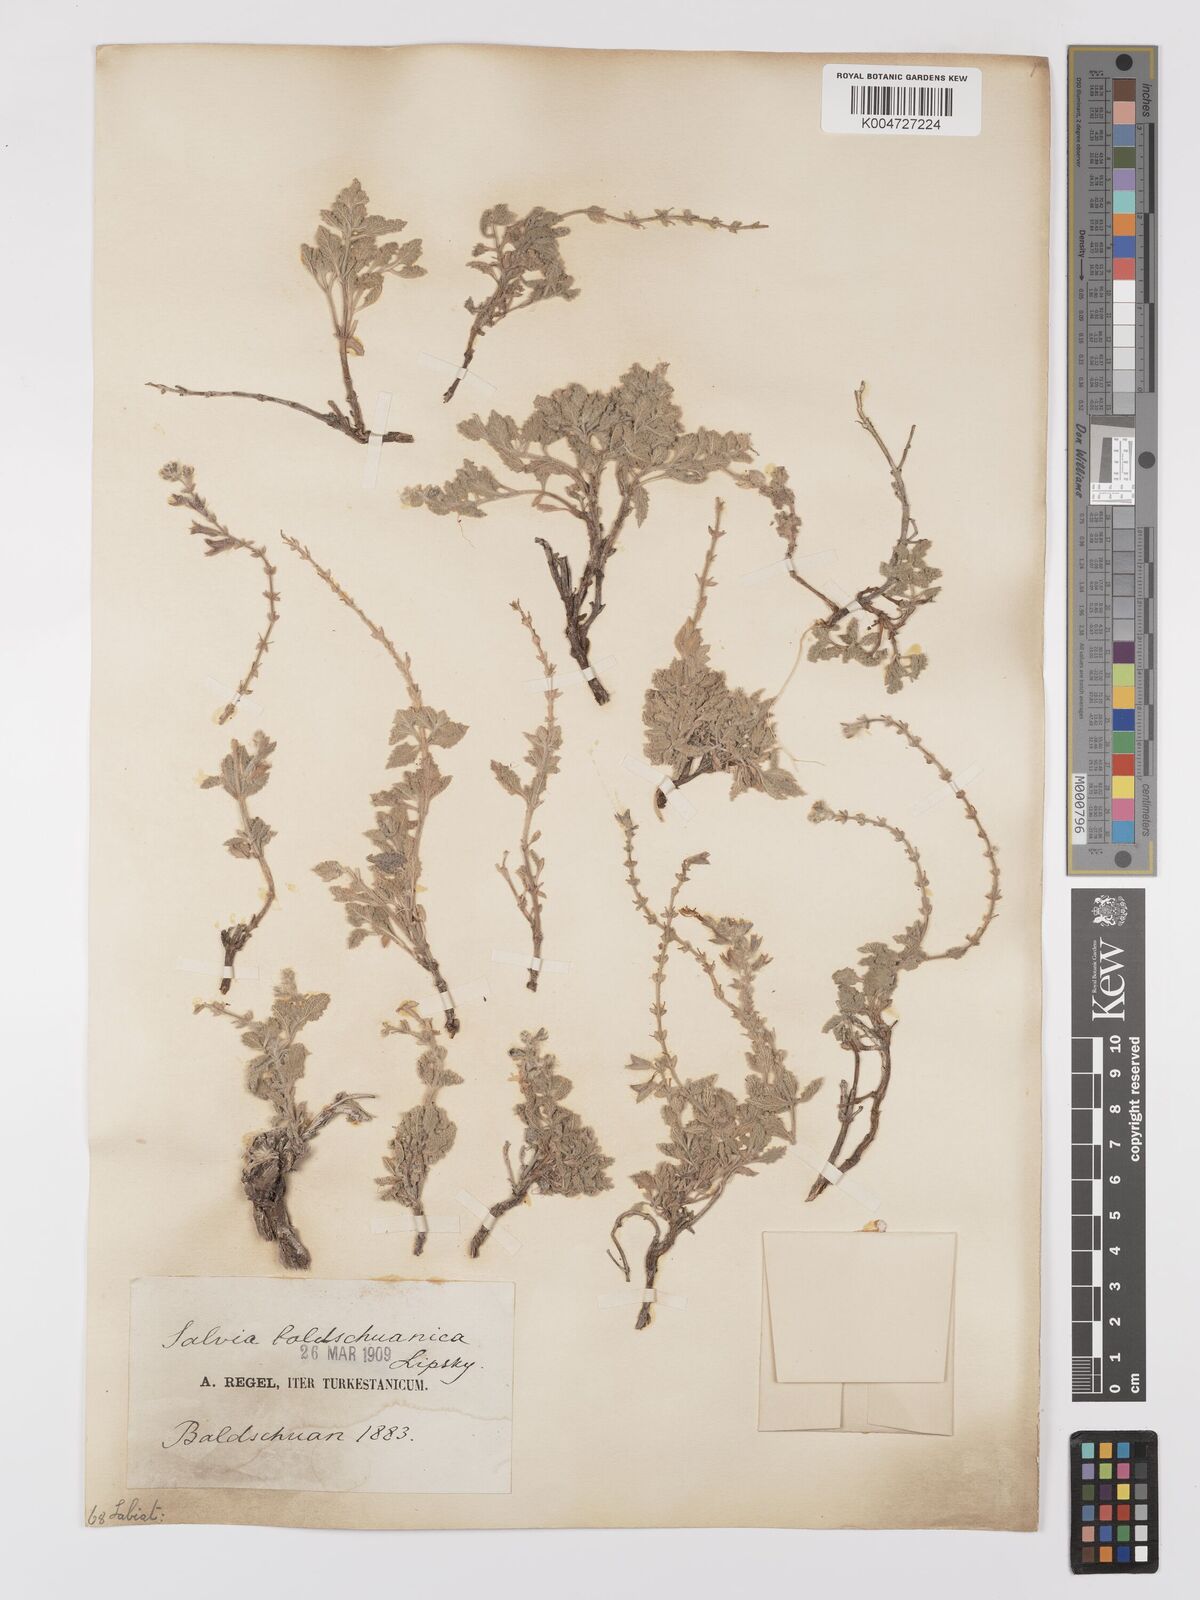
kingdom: Plantae
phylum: Tracheophyta
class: Magnoliopsida
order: Lamiales
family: Lamiaceae
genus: Salvia
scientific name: Salvia baldshuanica
